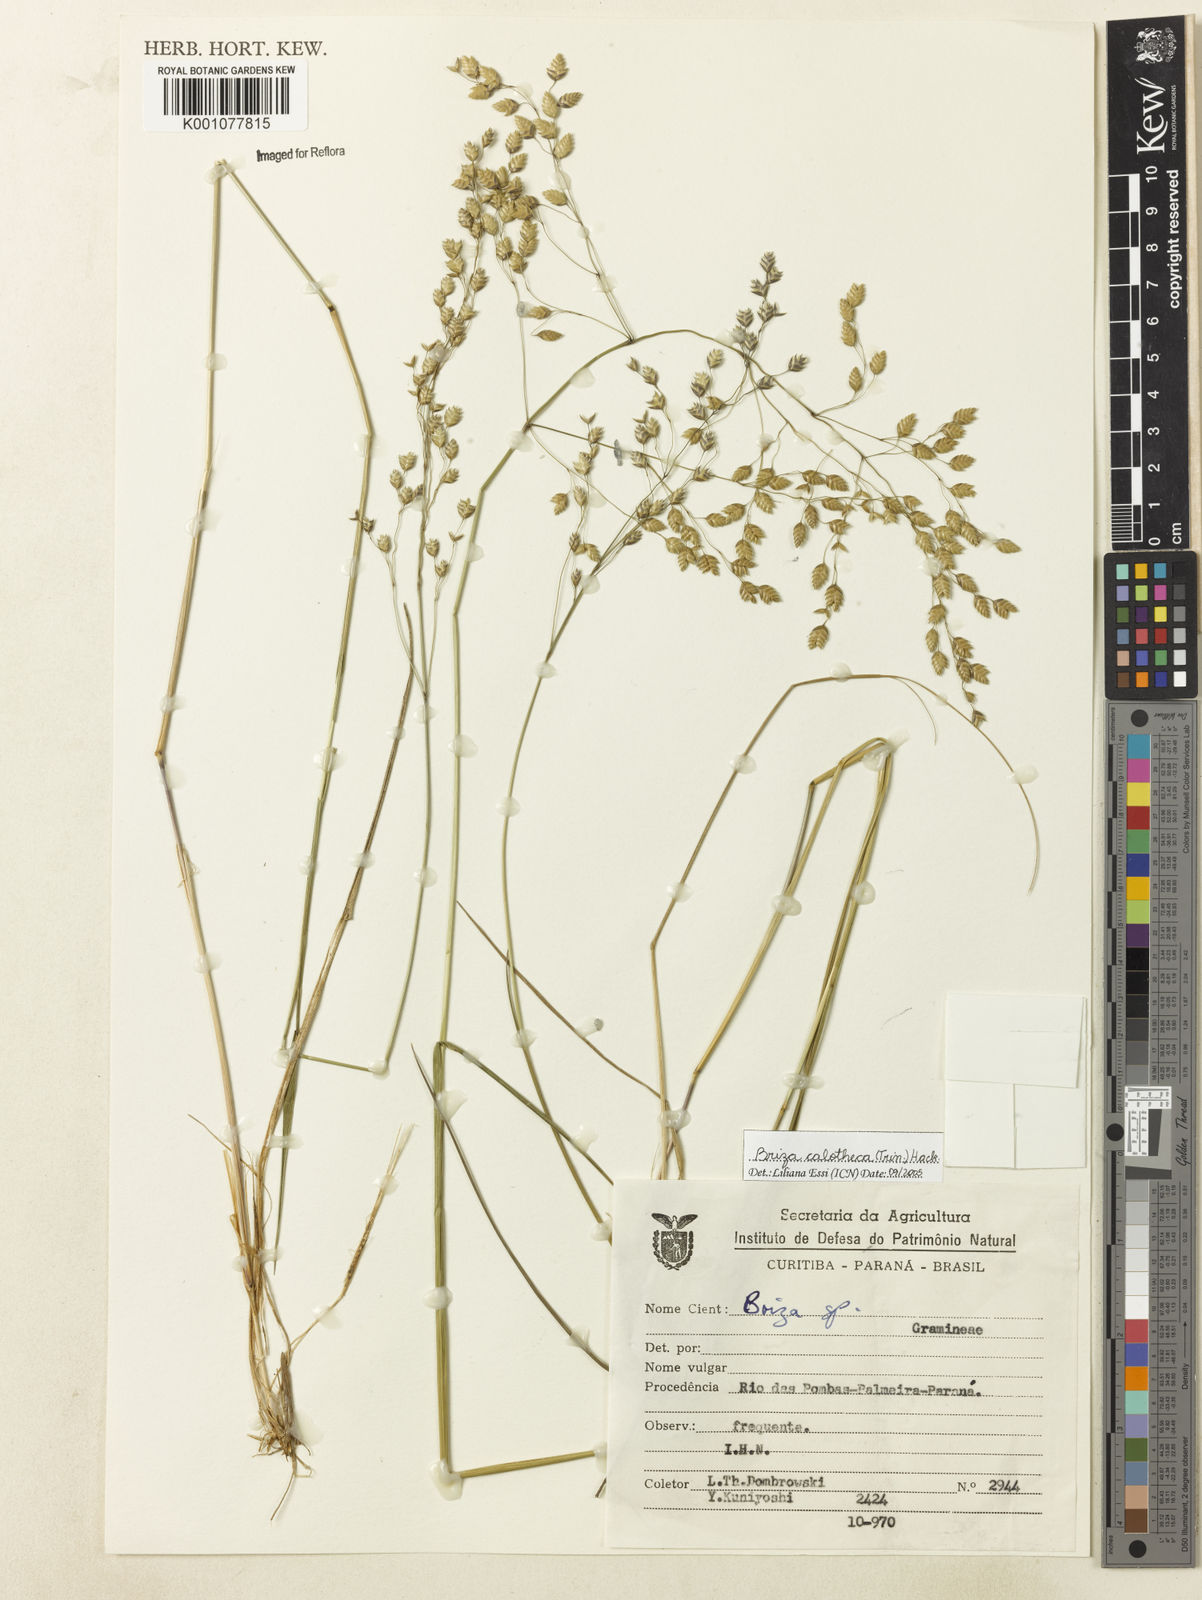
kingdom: Plantae
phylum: Tracheophyta
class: Liliopsida
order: Poales
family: Poaceae
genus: Poidium
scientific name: Poidium calotheca
